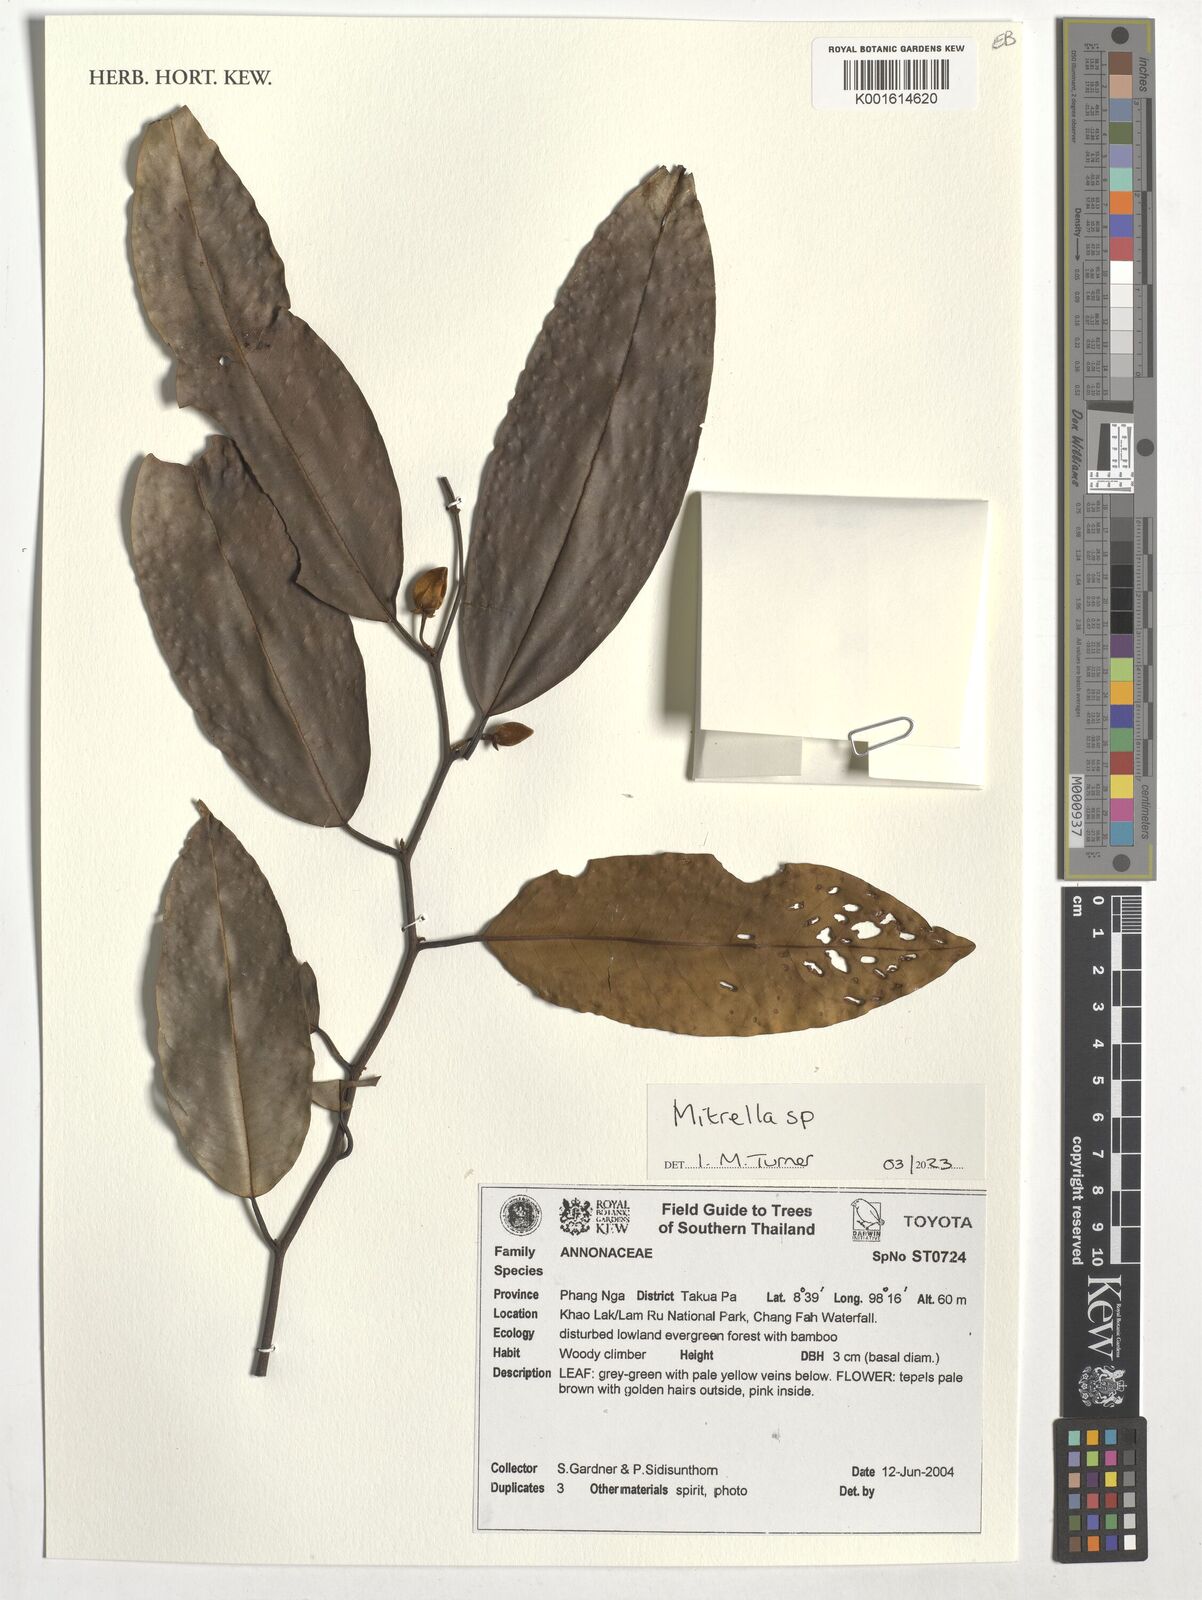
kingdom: Plantae
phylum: Tracheophyta
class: Magnoliopsida
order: Magnoliales
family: Annonaceae
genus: Mitrella
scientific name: Mitrella
